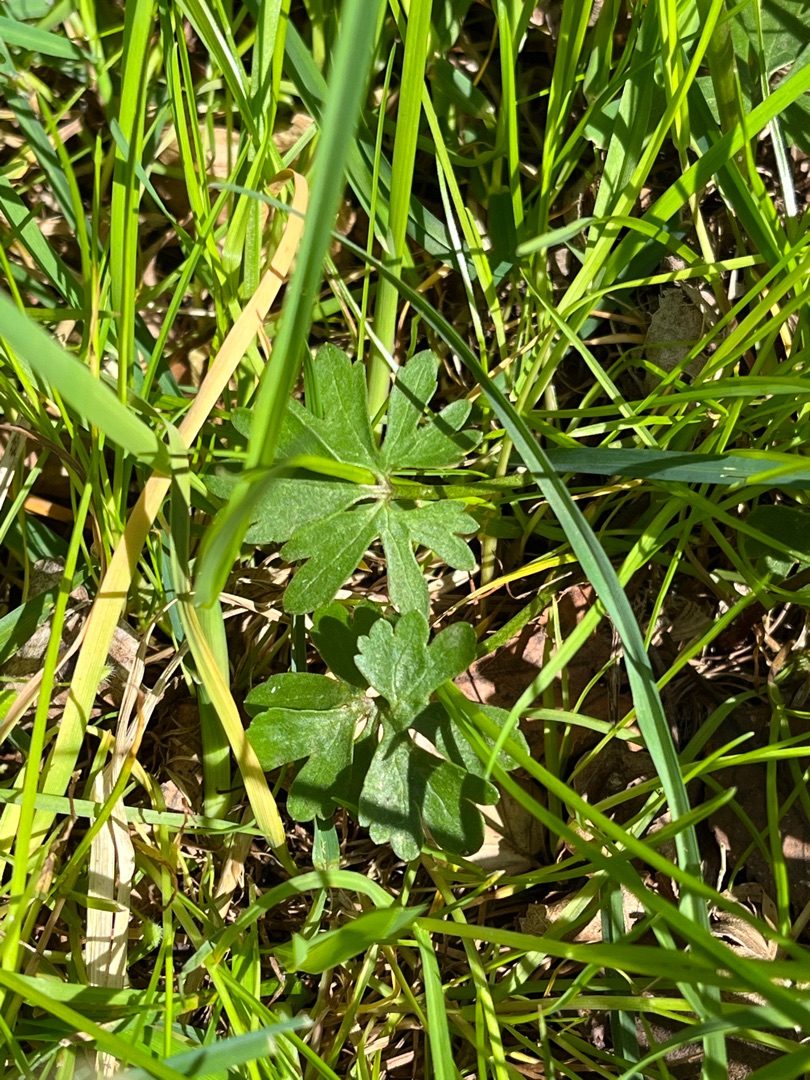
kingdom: Plantae
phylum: Tracheophyta
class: Magnoliopsida
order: Ranunculales
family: Ranunculaceae
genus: Ranunculus
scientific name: Ranunculus auricomus
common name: Nyrebladet ranunkel
